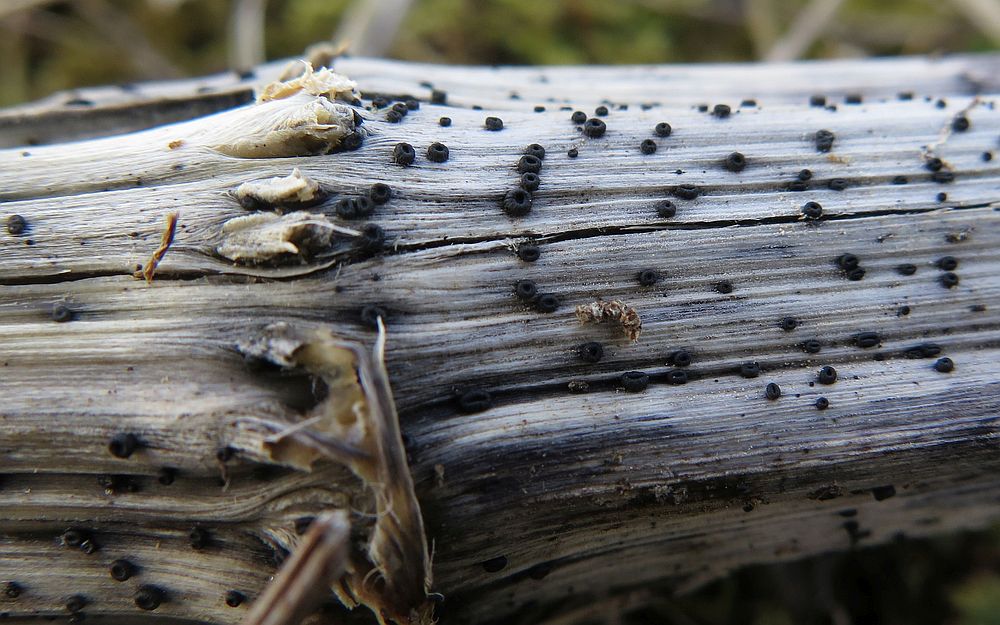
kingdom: Fungi
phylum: Ascomycota
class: Leotiomycetes
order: Helotiales
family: Heterosphaeriaceae
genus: Heterosphaeria
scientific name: Heterosphaeria
